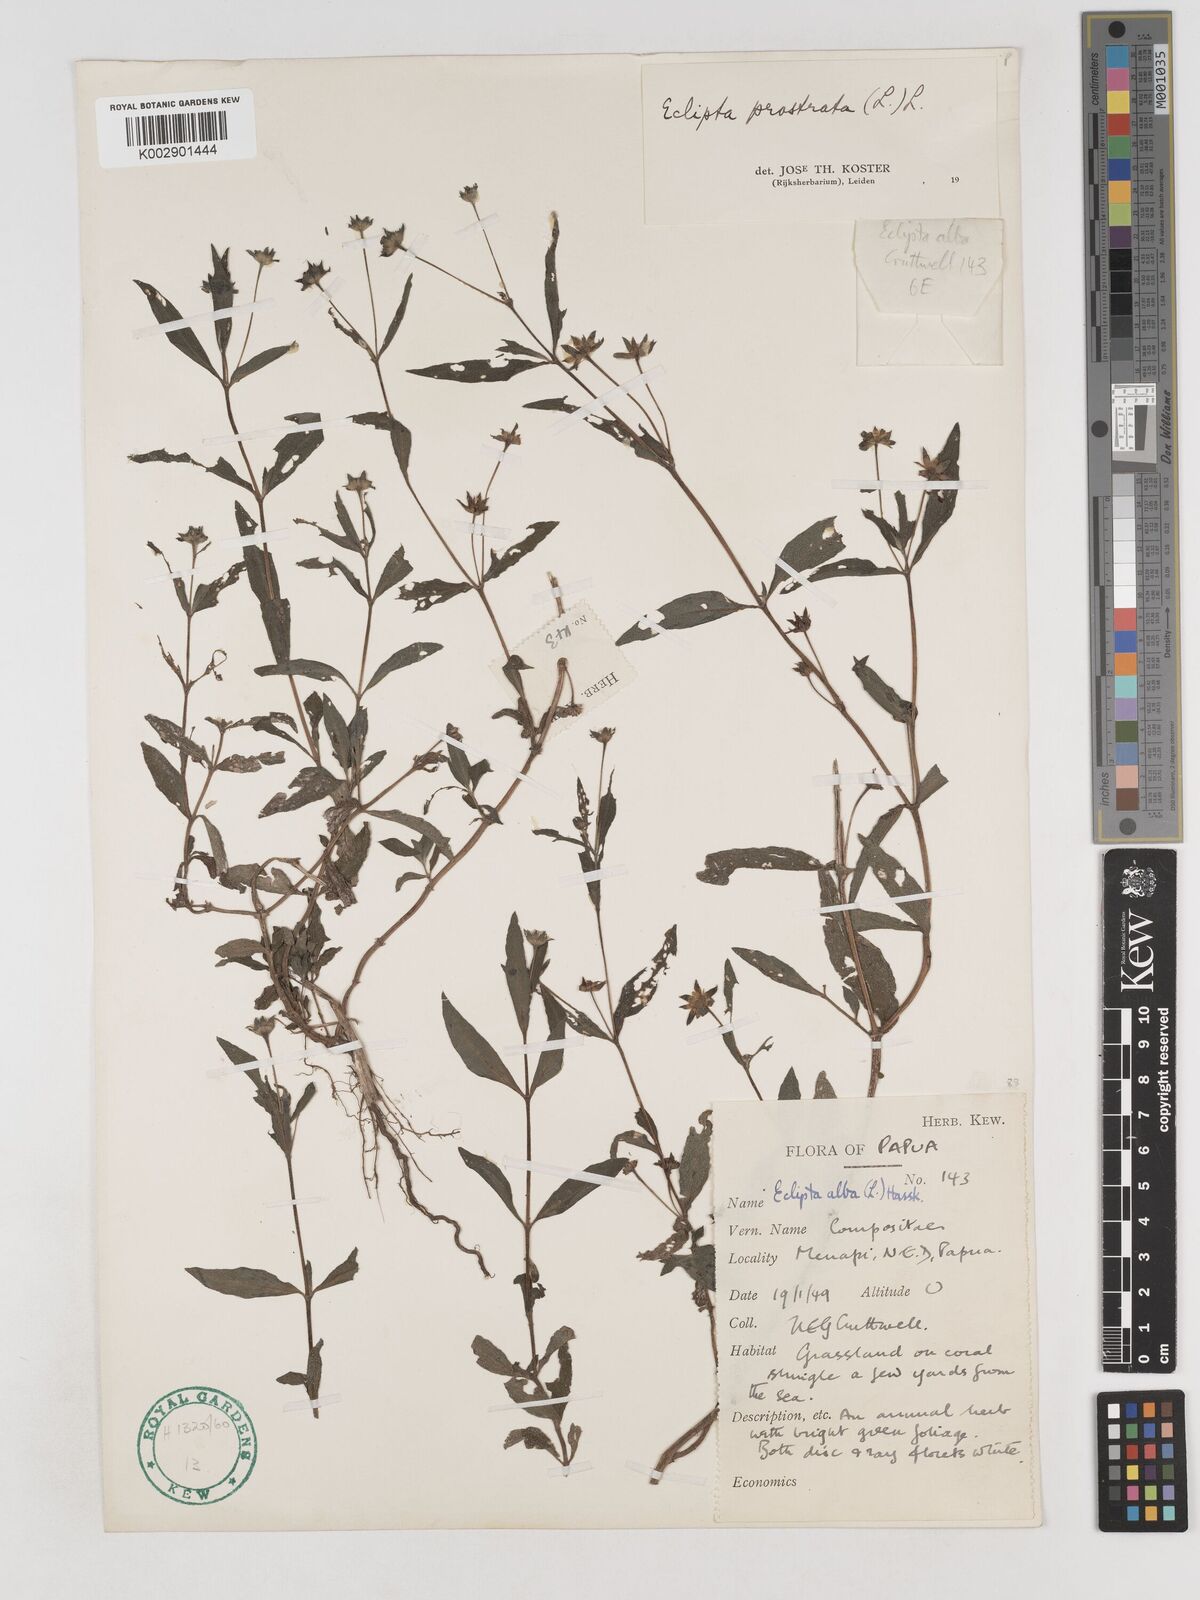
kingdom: Plantae
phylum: Tracheophyta
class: Magnoliopsida
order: Asterales
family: Asteraceae
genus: Eclipta
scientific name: Eclipta prostrata
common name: False daisy
